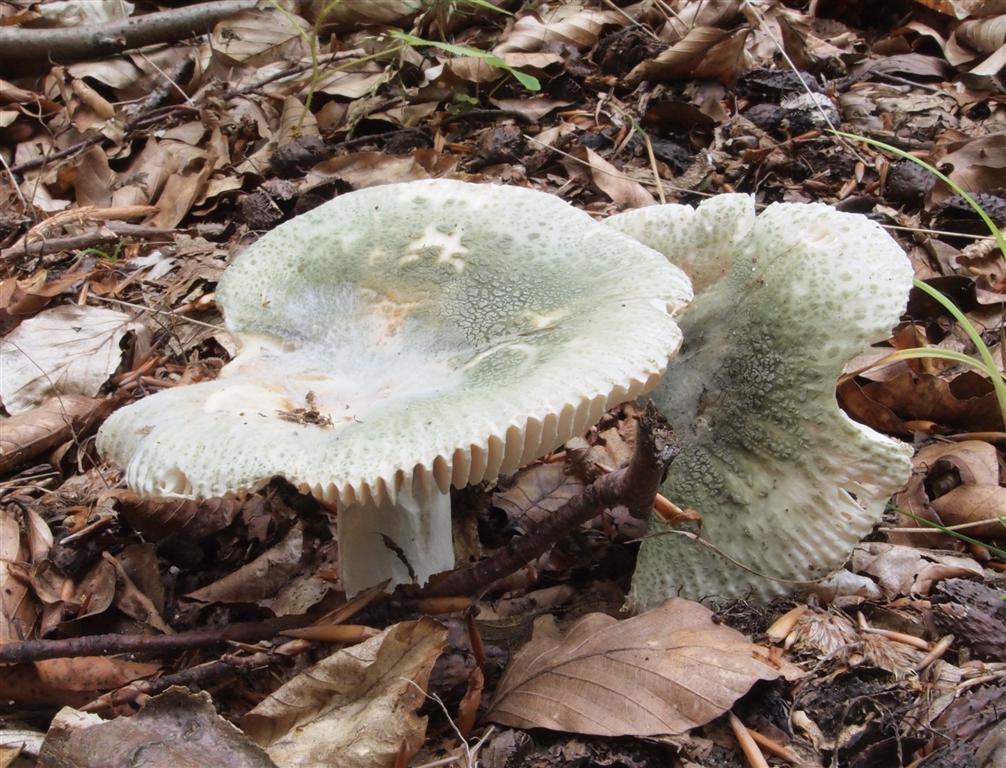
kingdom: Fungi
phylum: Basidiomycota
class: Agaricomycetes
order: Russulales
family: Russulaceae
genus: Russula
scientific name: Russula virescens
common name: spanskgrøn skørhat
